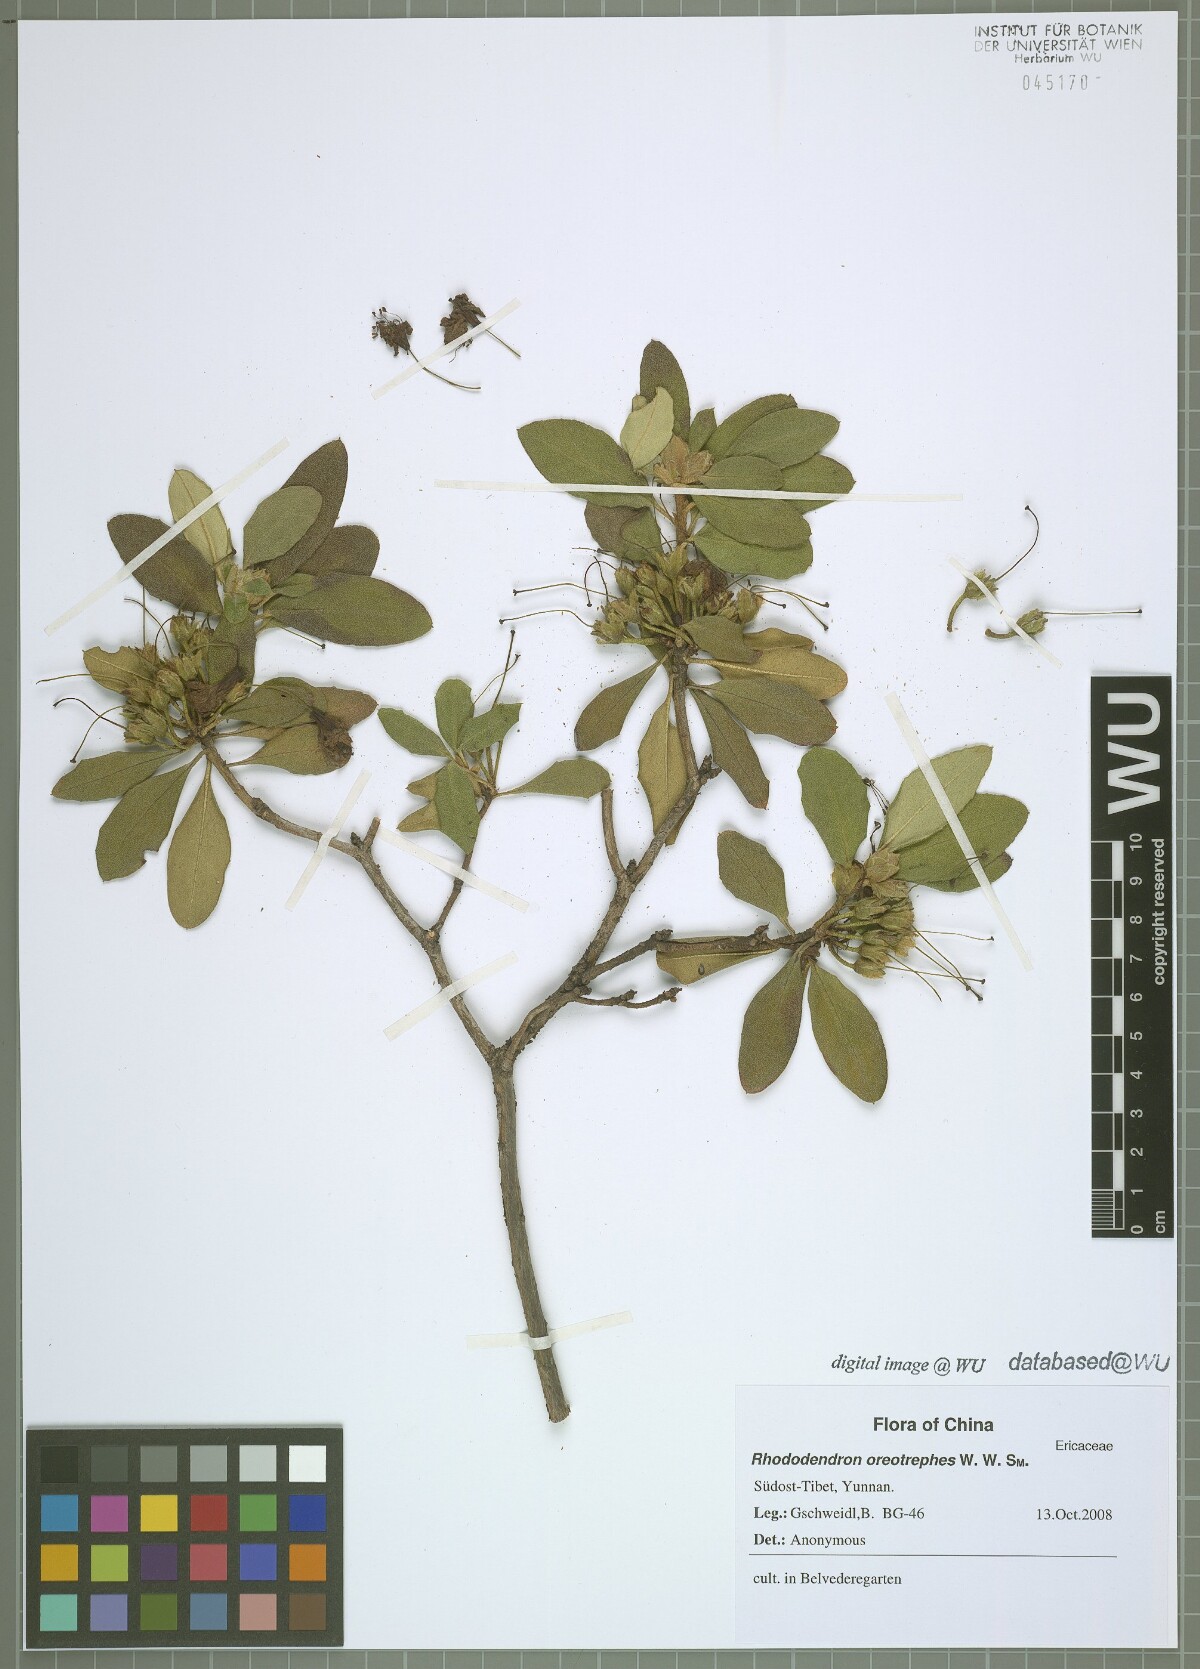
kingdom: Plantae
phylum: Tracheophyta
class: Magnoliopsida
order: Ericales
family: Ericaceae
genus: Rhododendron
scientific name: Rhododendron oreotrephes
